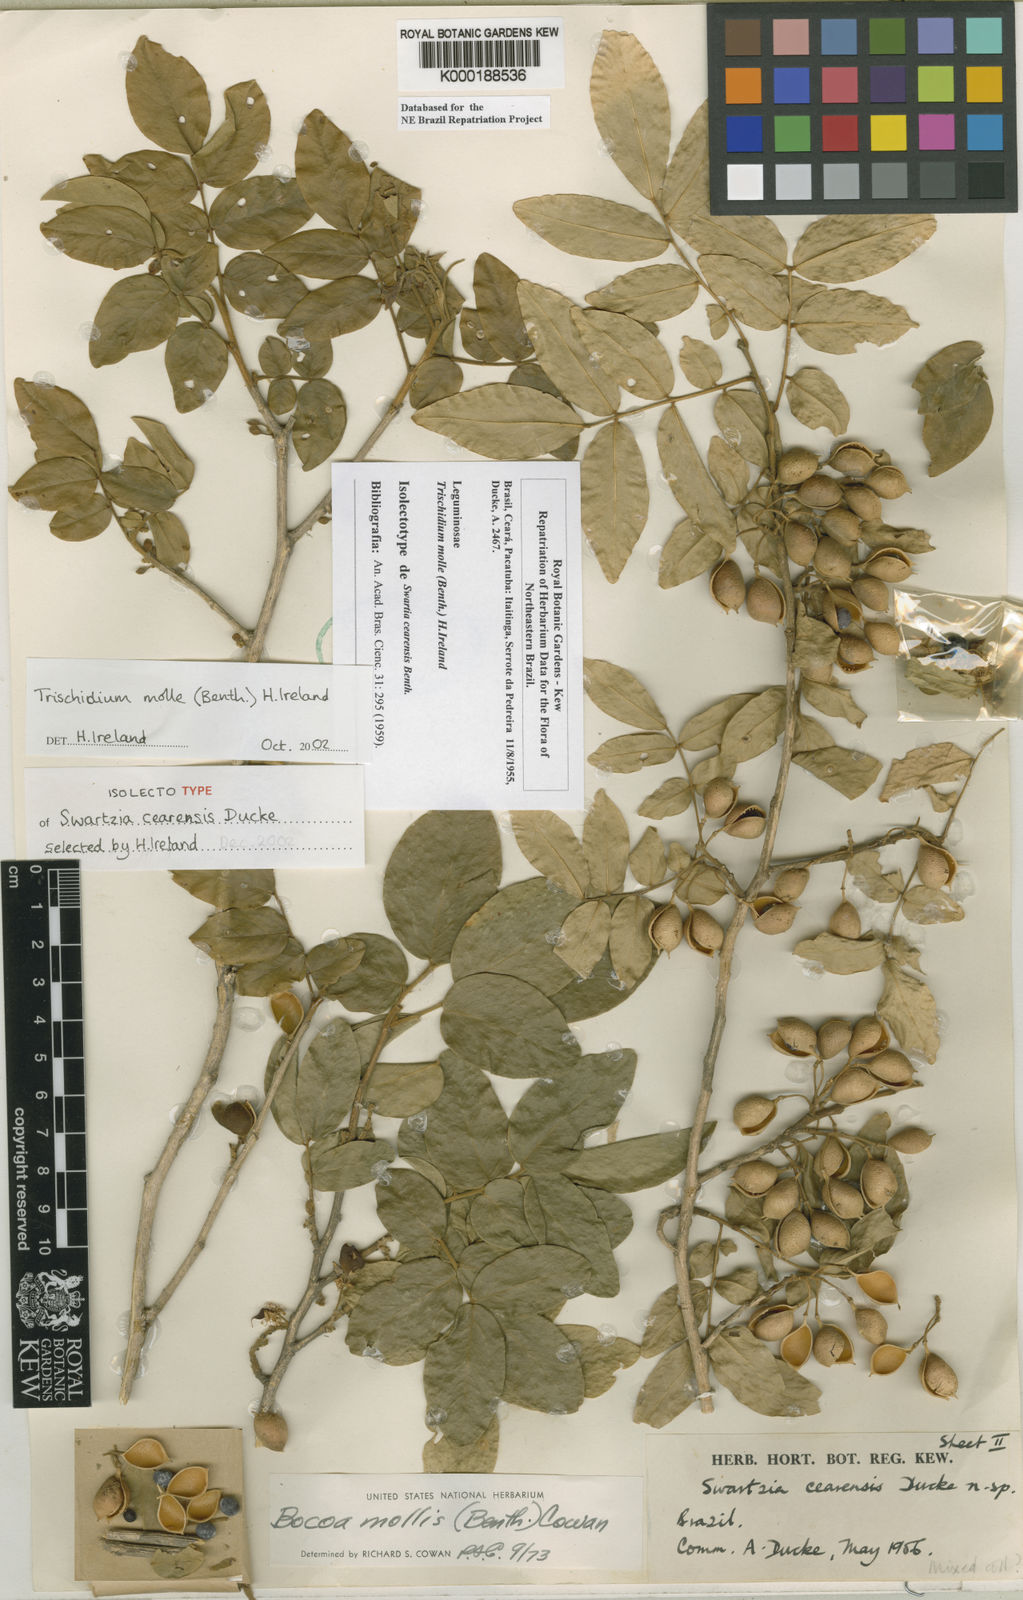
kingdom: Plantae
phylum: Tracheophyta
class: Magnoliopsida
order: Fabales
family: Fabaceae
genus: Trischidium
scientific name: Trischidium molle
